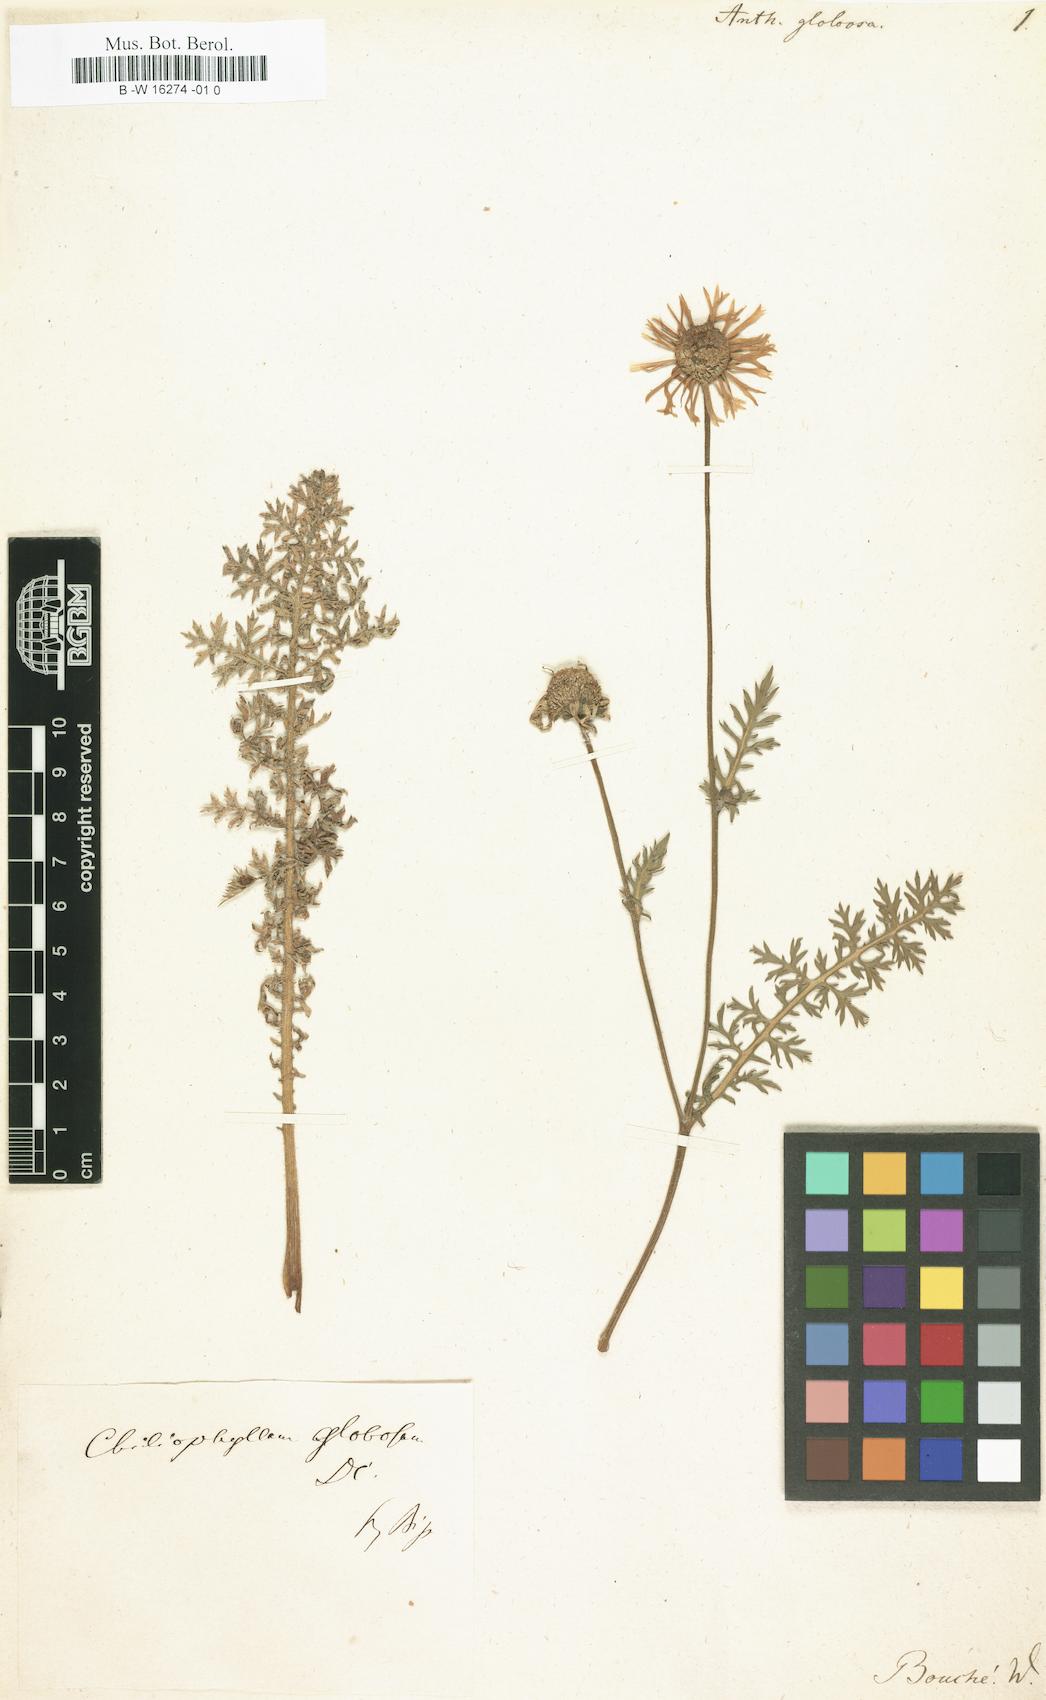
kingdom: Plantae
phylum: Tracheophyta
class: Magnoliopsida
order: Asterales
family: Asteraceae
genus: Hybridella
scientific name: Hybridella globosa
